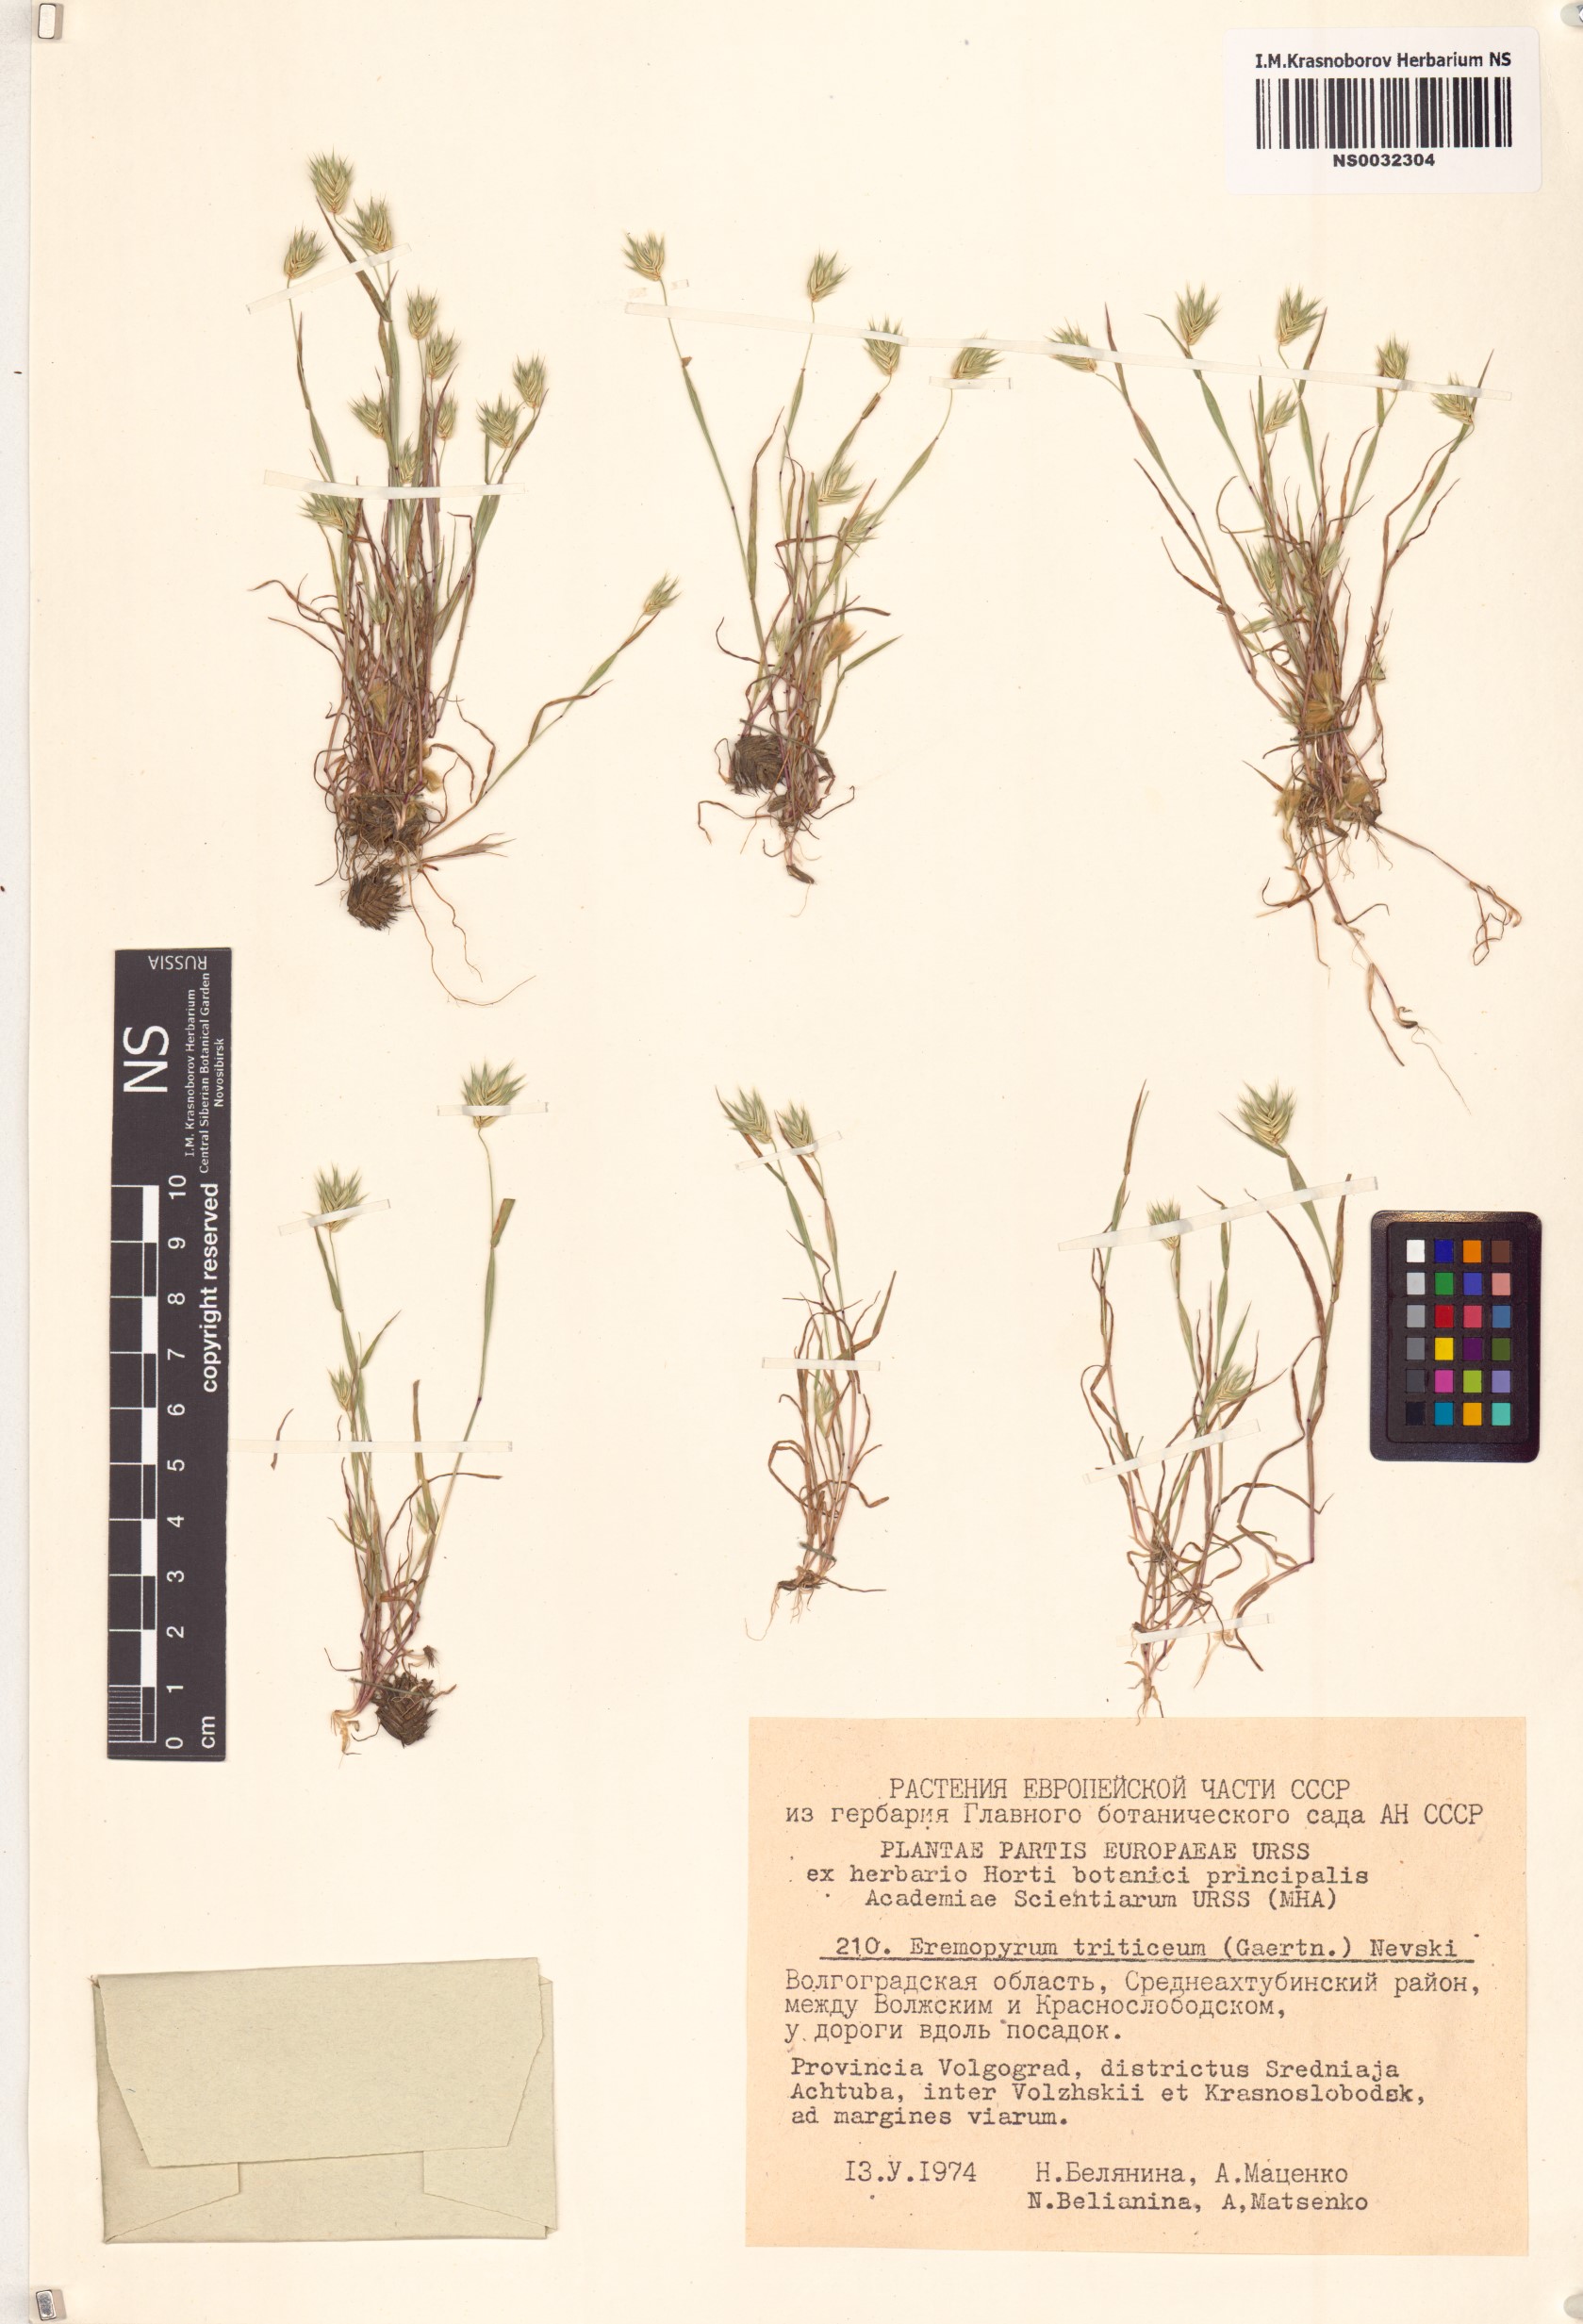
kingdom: Plantae
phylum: Tracheophyta
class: Liliopsida
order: Poales
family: Poaceae
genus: Eremopyrum
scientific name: Eremopyrum triticeum
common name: Annual wheatgrass
